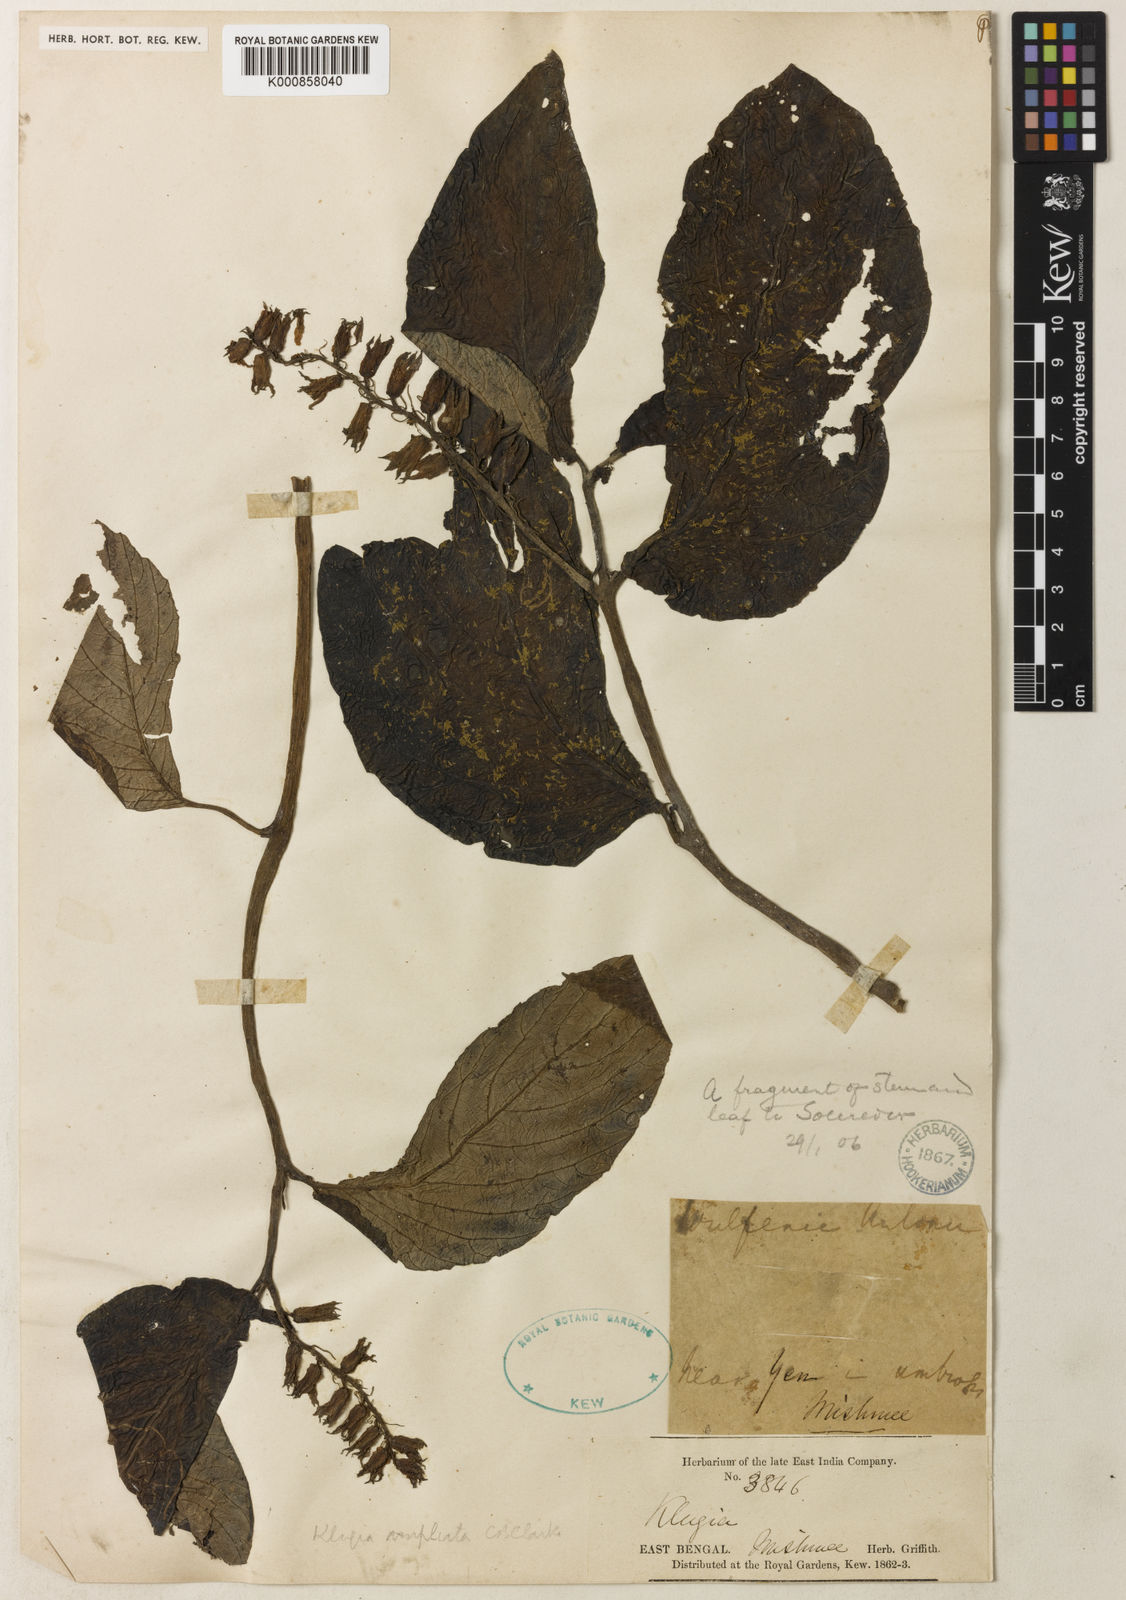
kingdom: Plantae
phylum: Tracheophyta
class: Magnoliopsida
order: Lamiales
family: Gesneriaceae
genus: Rhynchoglossum
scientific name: Rhynchoglossum ampliatum
